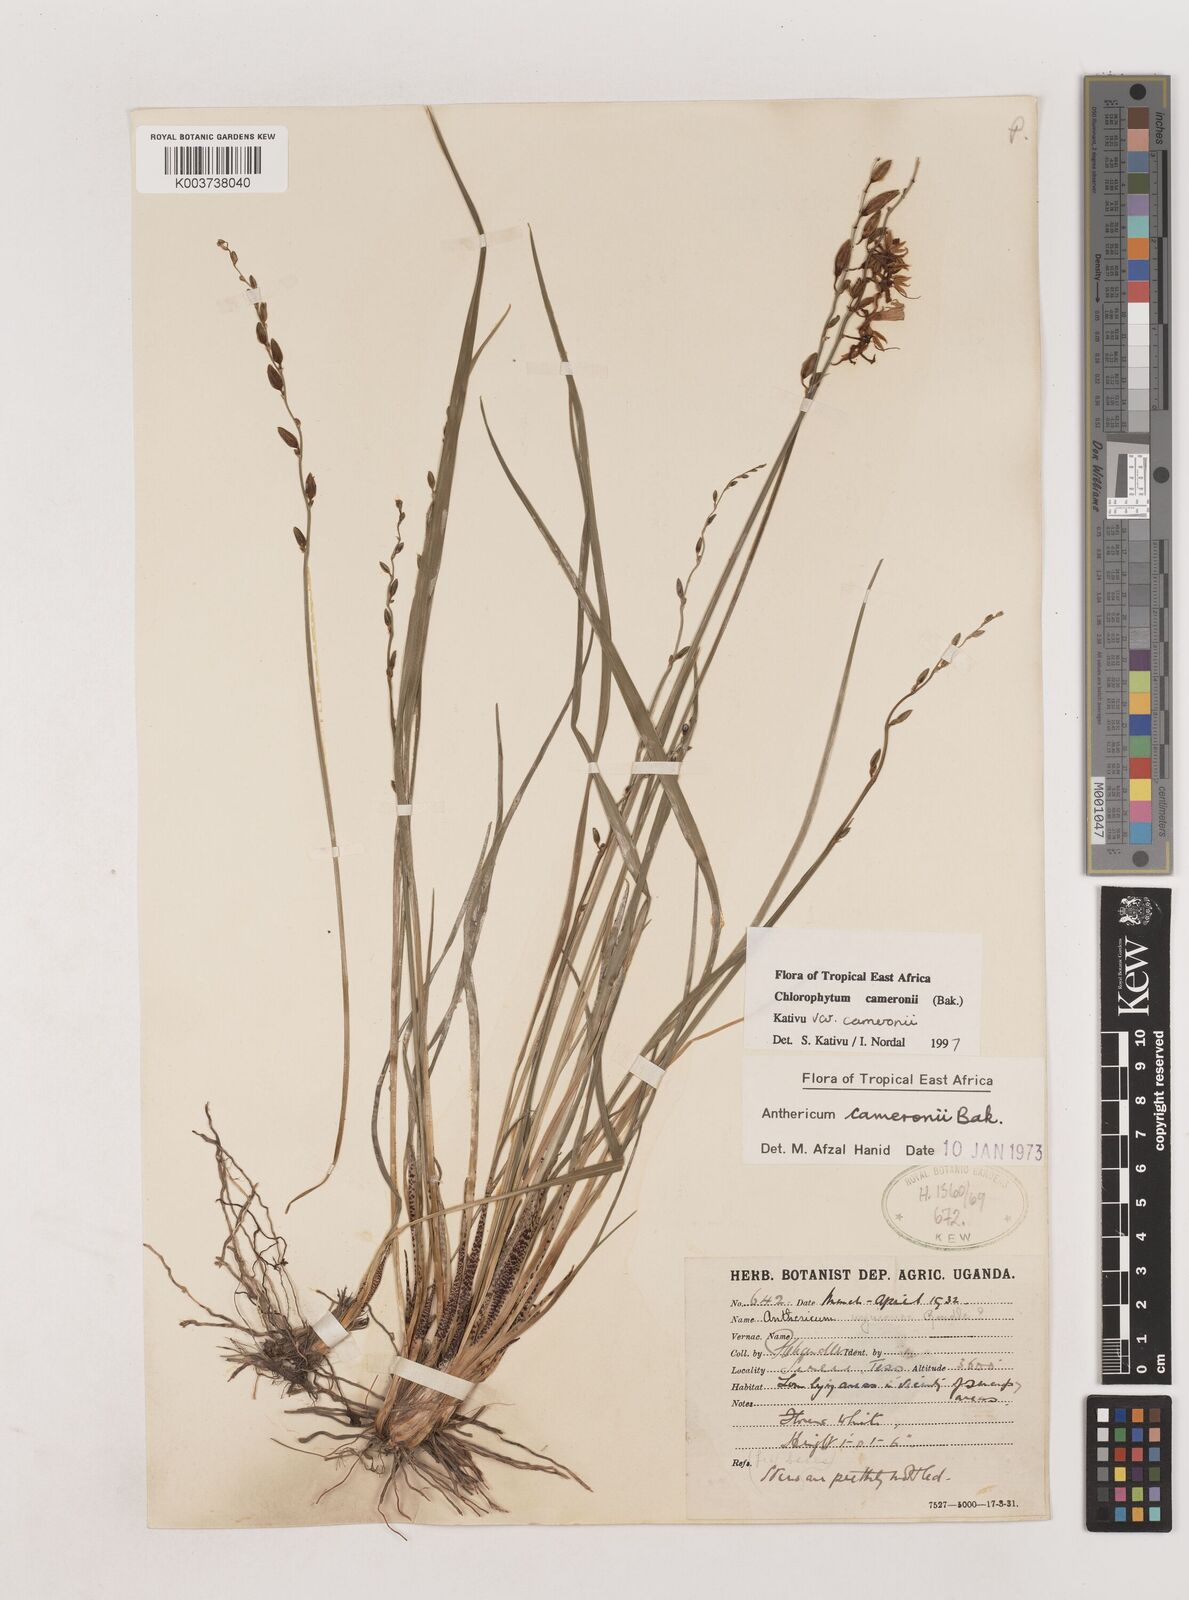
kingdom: Plantae
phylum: Tracheophyta
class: Liliopsida
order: Asparagales
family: Asparagaceae
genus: Chlorophytum
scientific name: Chlorophytum cameronii
